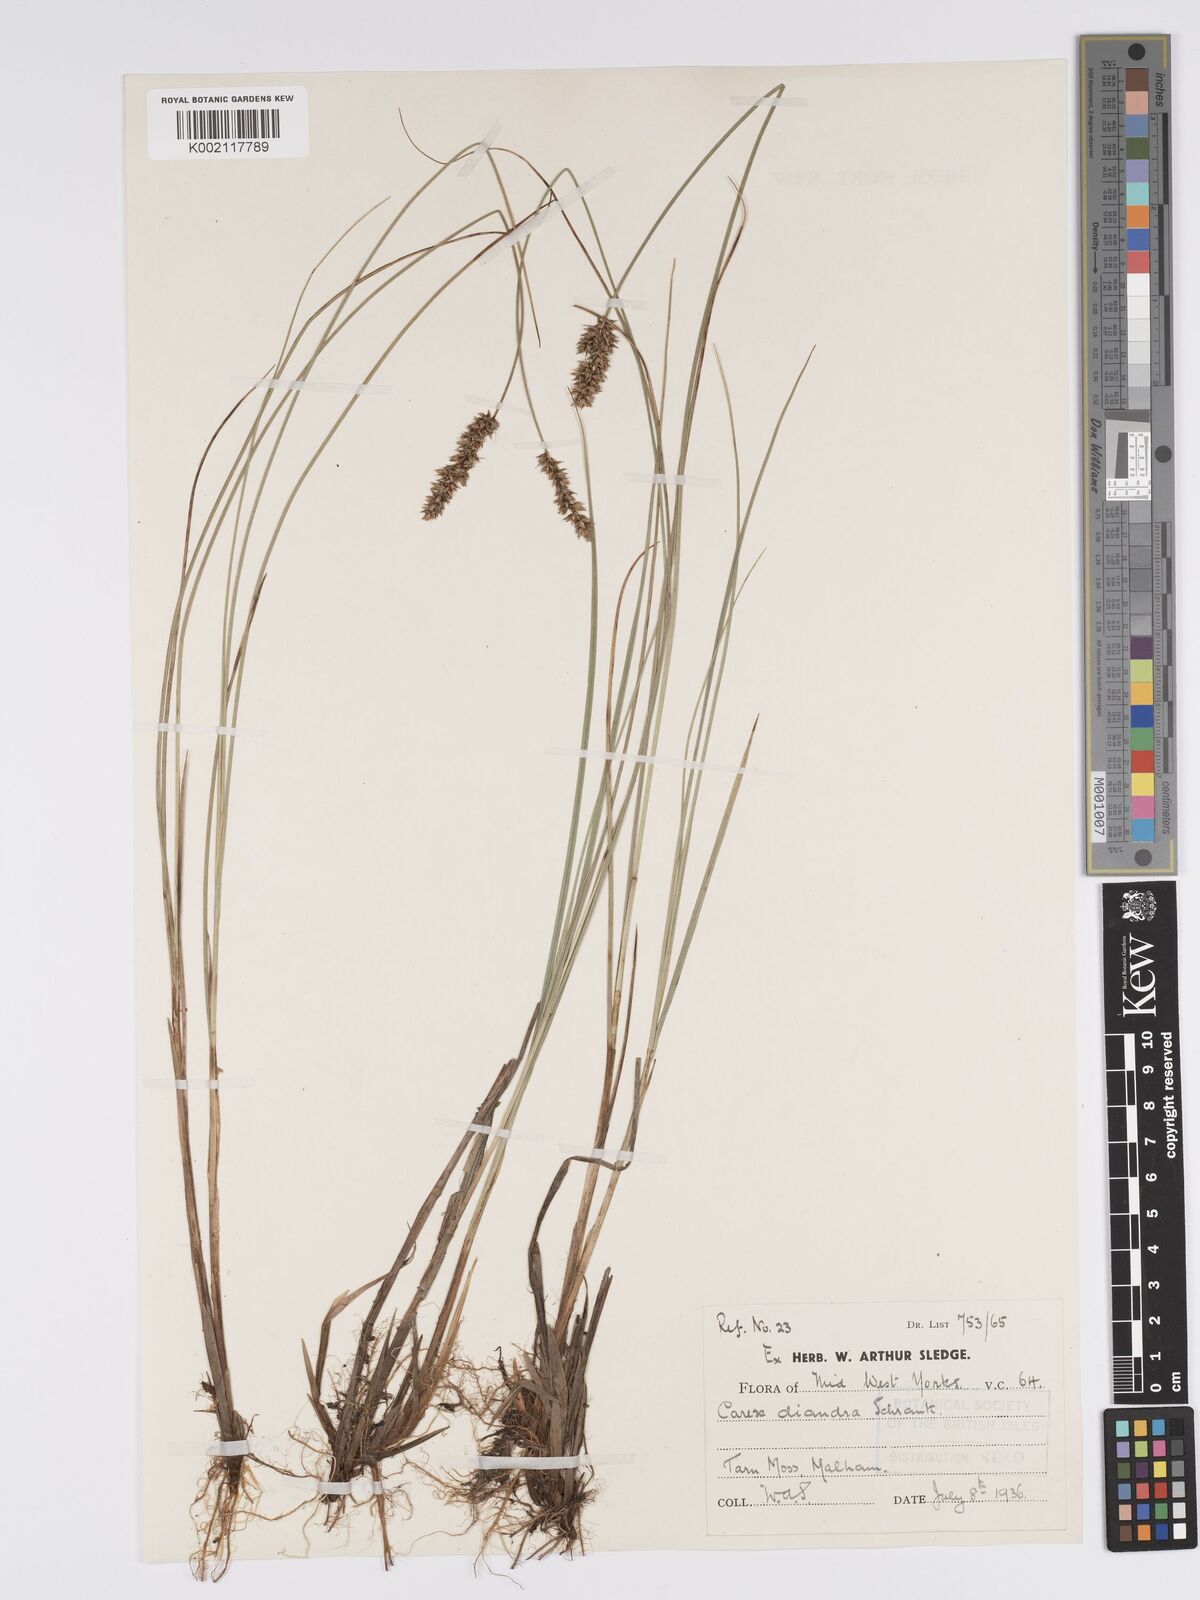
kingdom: Plantae
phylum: Tracheophyta
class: Liliopsida
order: Poales
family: Cyperaceae
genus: Carex
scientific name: Carex diandra
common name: Lesser tussock-sedge
